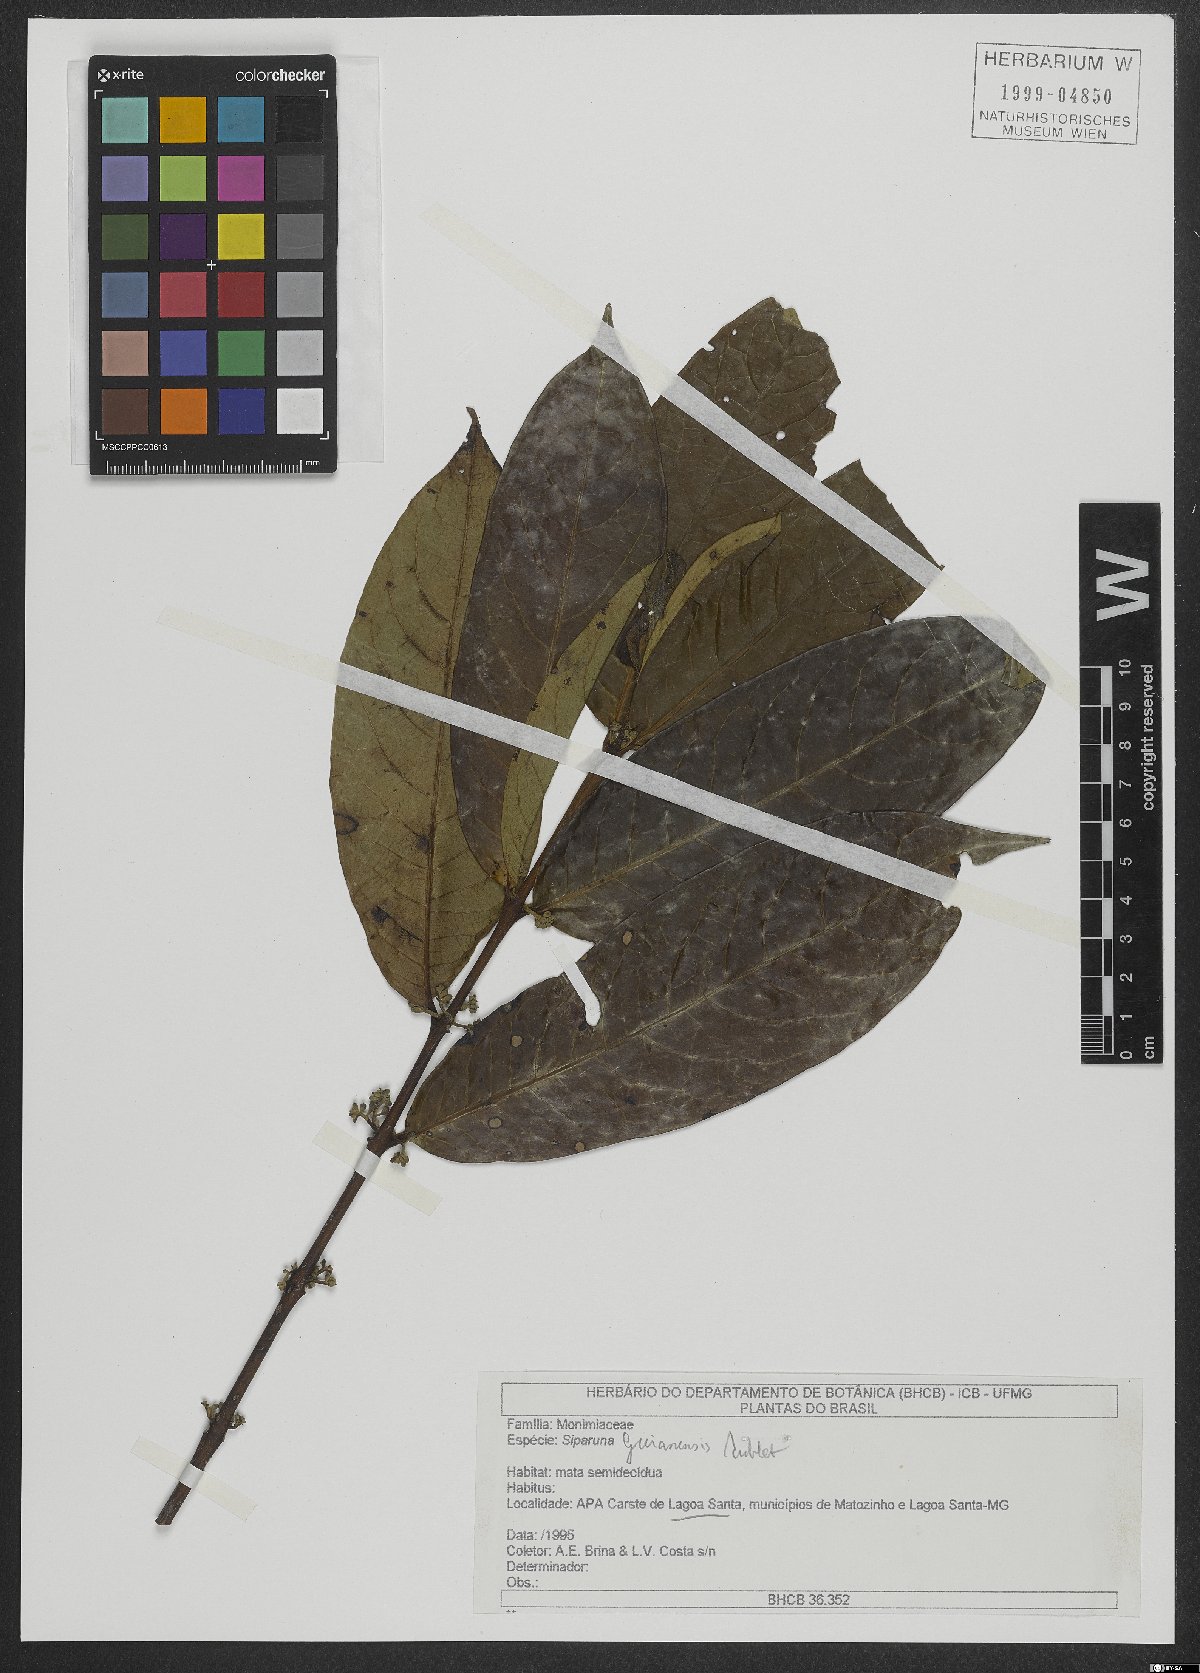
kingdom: Plantae
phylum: Tracheophyta
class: Magnoliopsida
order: Laurales
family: Siparunaceae
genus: Siparuna
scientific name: Siparuna guianensis
